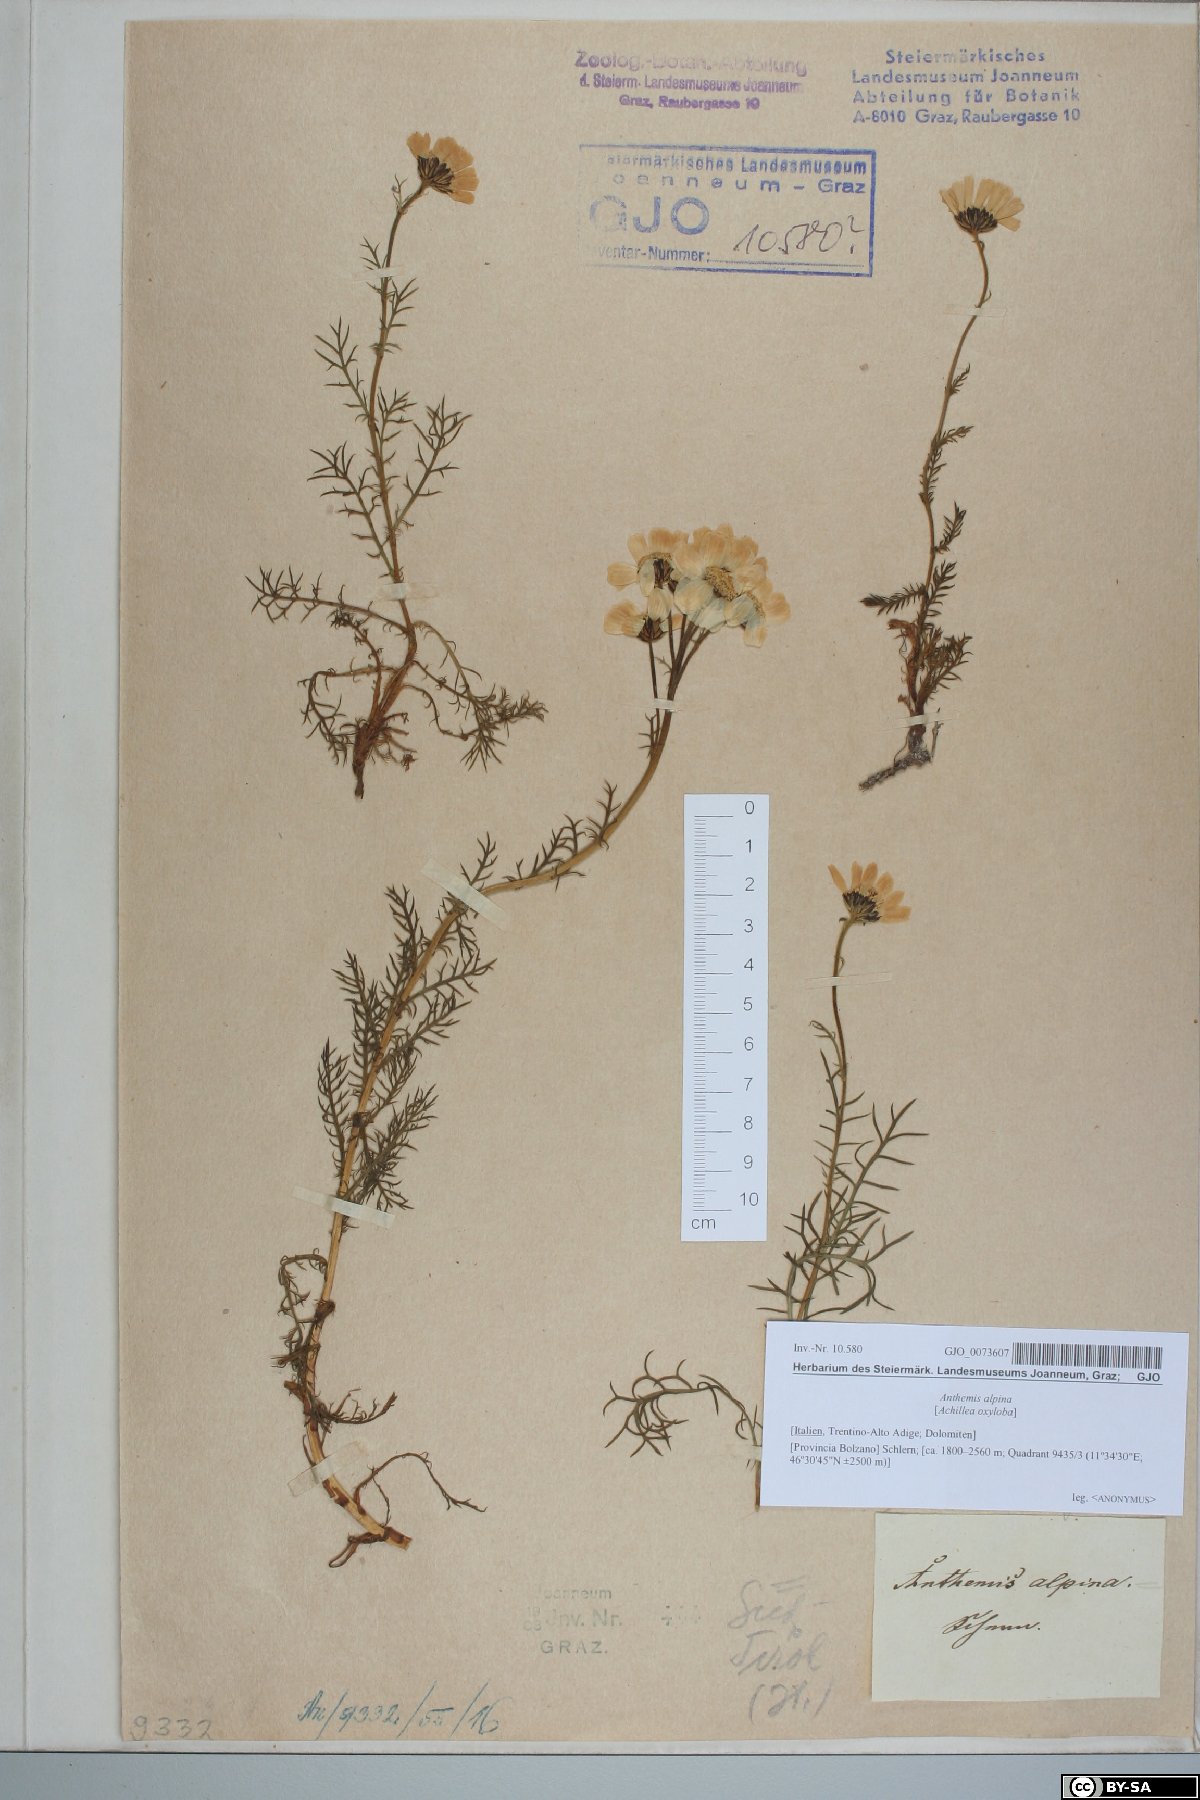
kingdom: Plantae
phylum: Tracheophyta
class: Magnoliopsida
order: Asterales
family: Asteraceae
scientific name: Asteraceae
